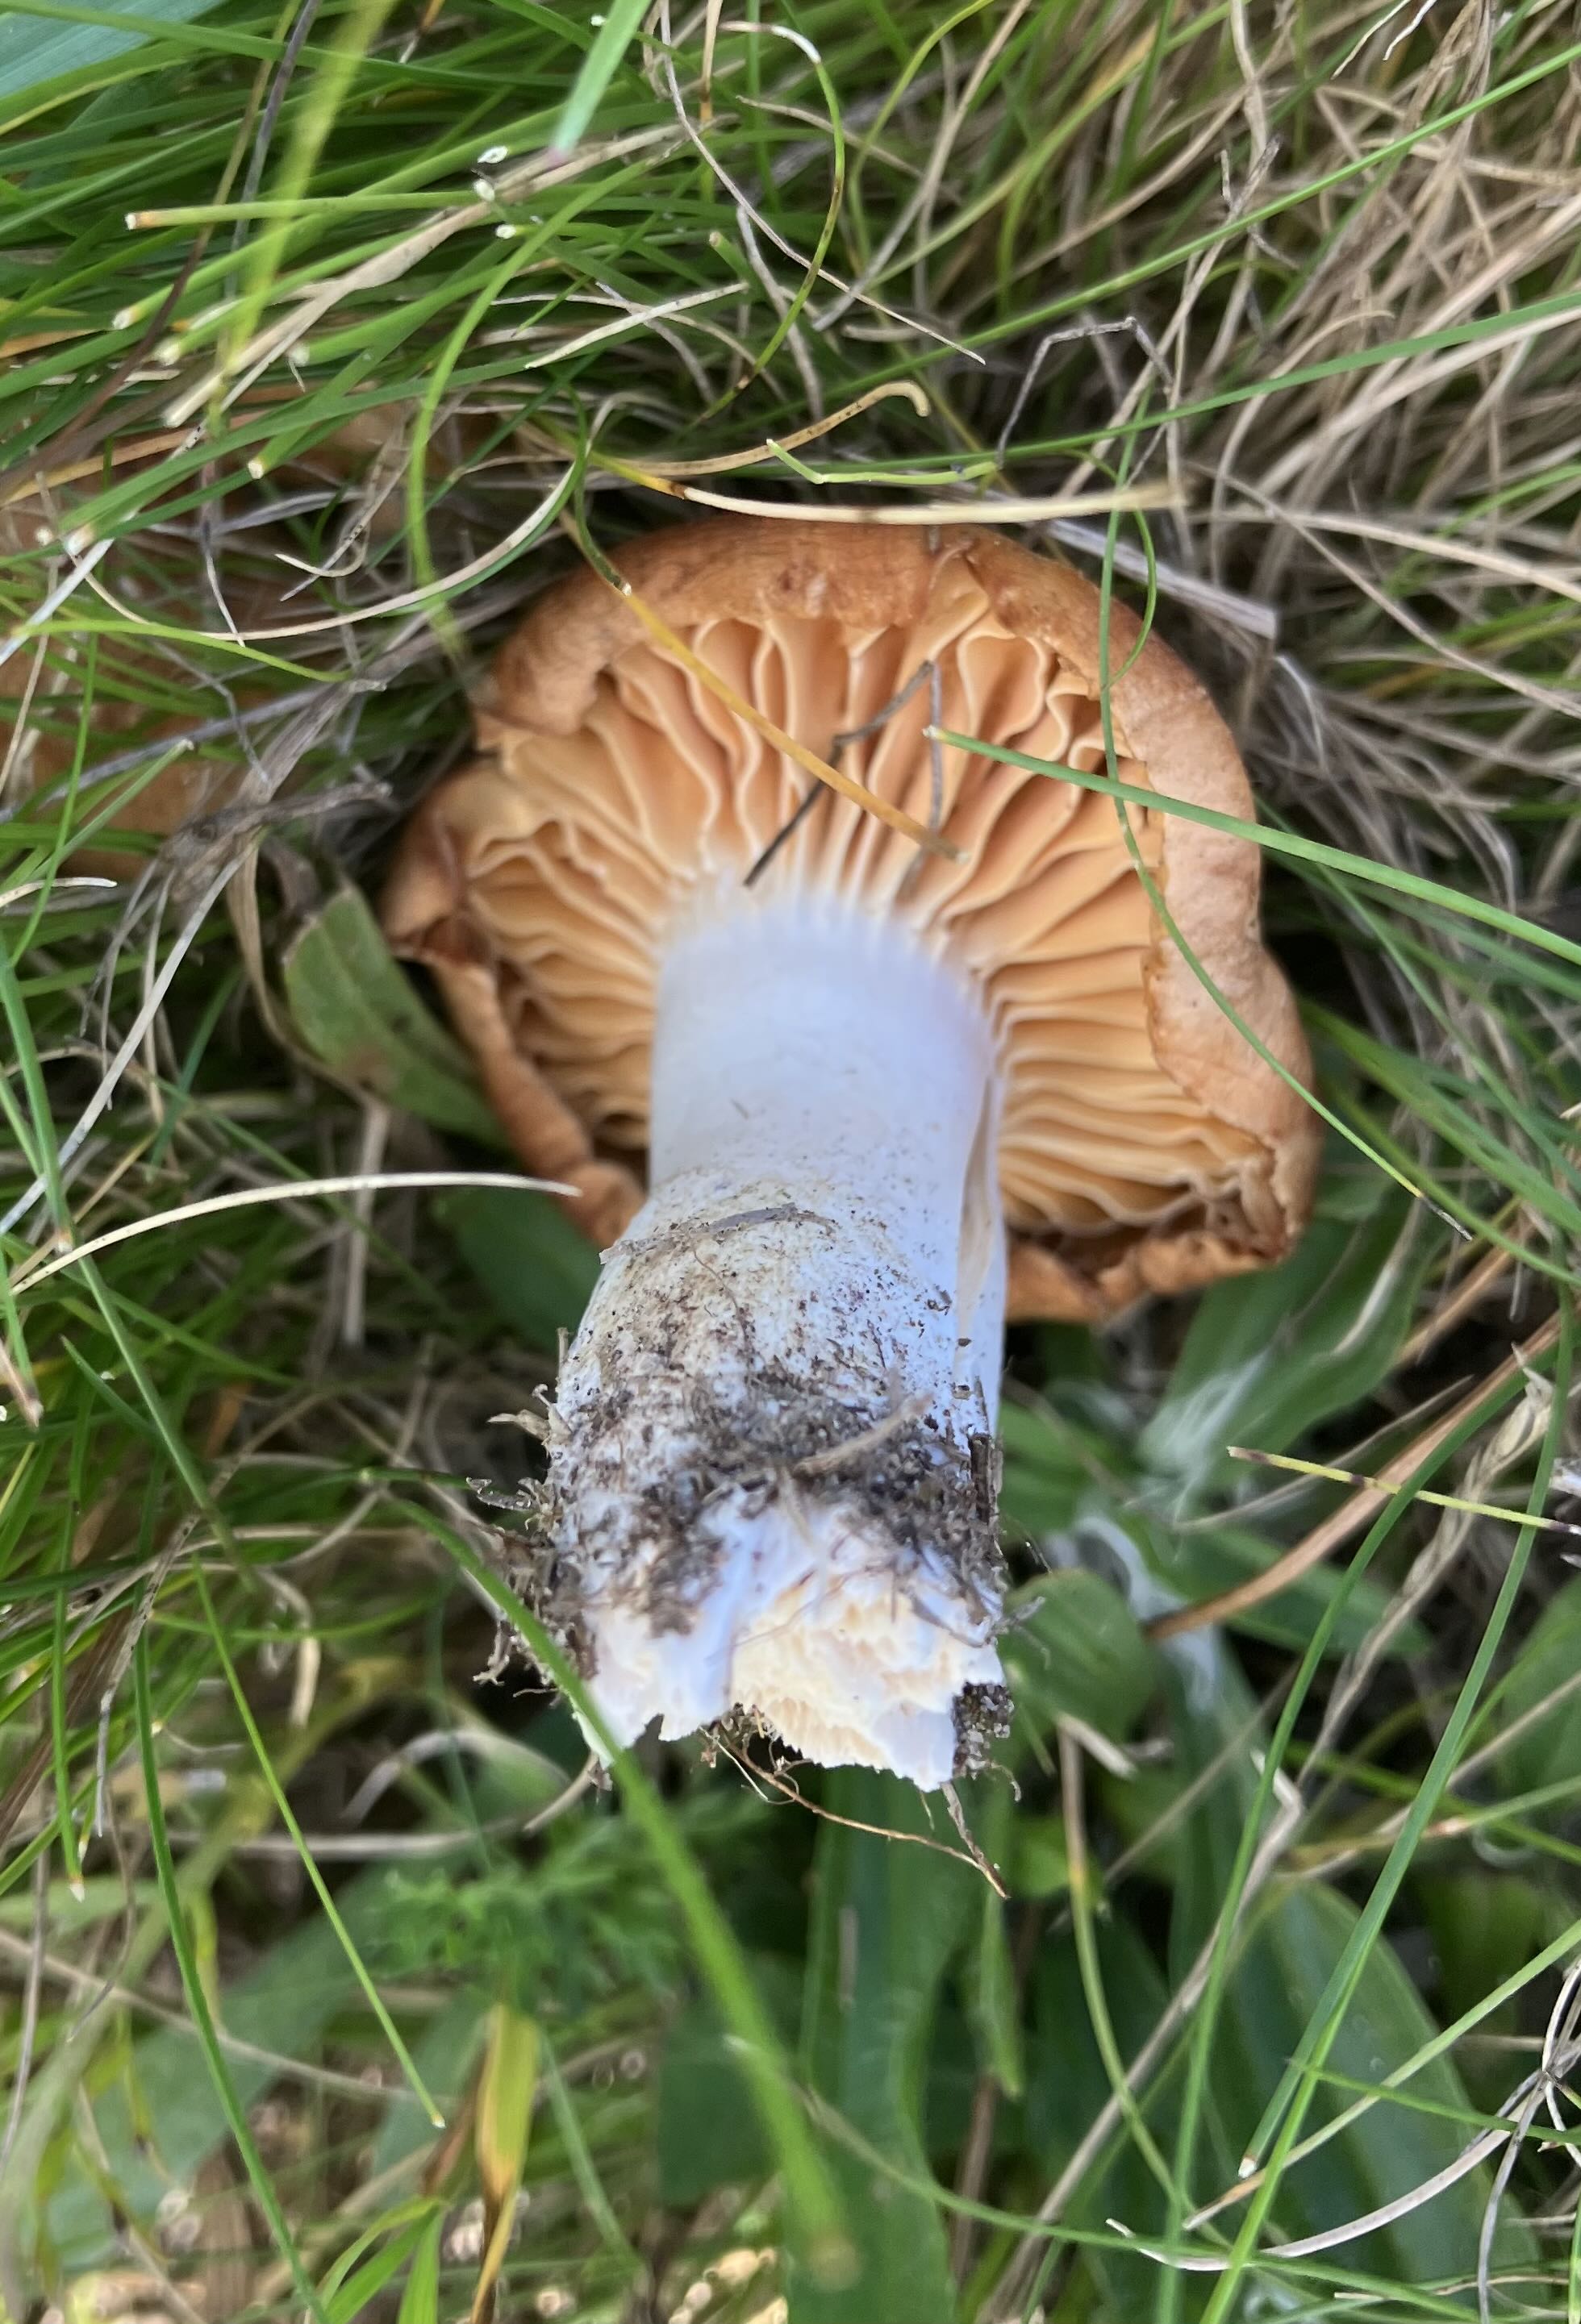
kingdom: Fungi
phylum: Basidiomycota
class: Agaricomycetes
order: Agaricales
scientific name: Agaricales
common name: champignonordenen
